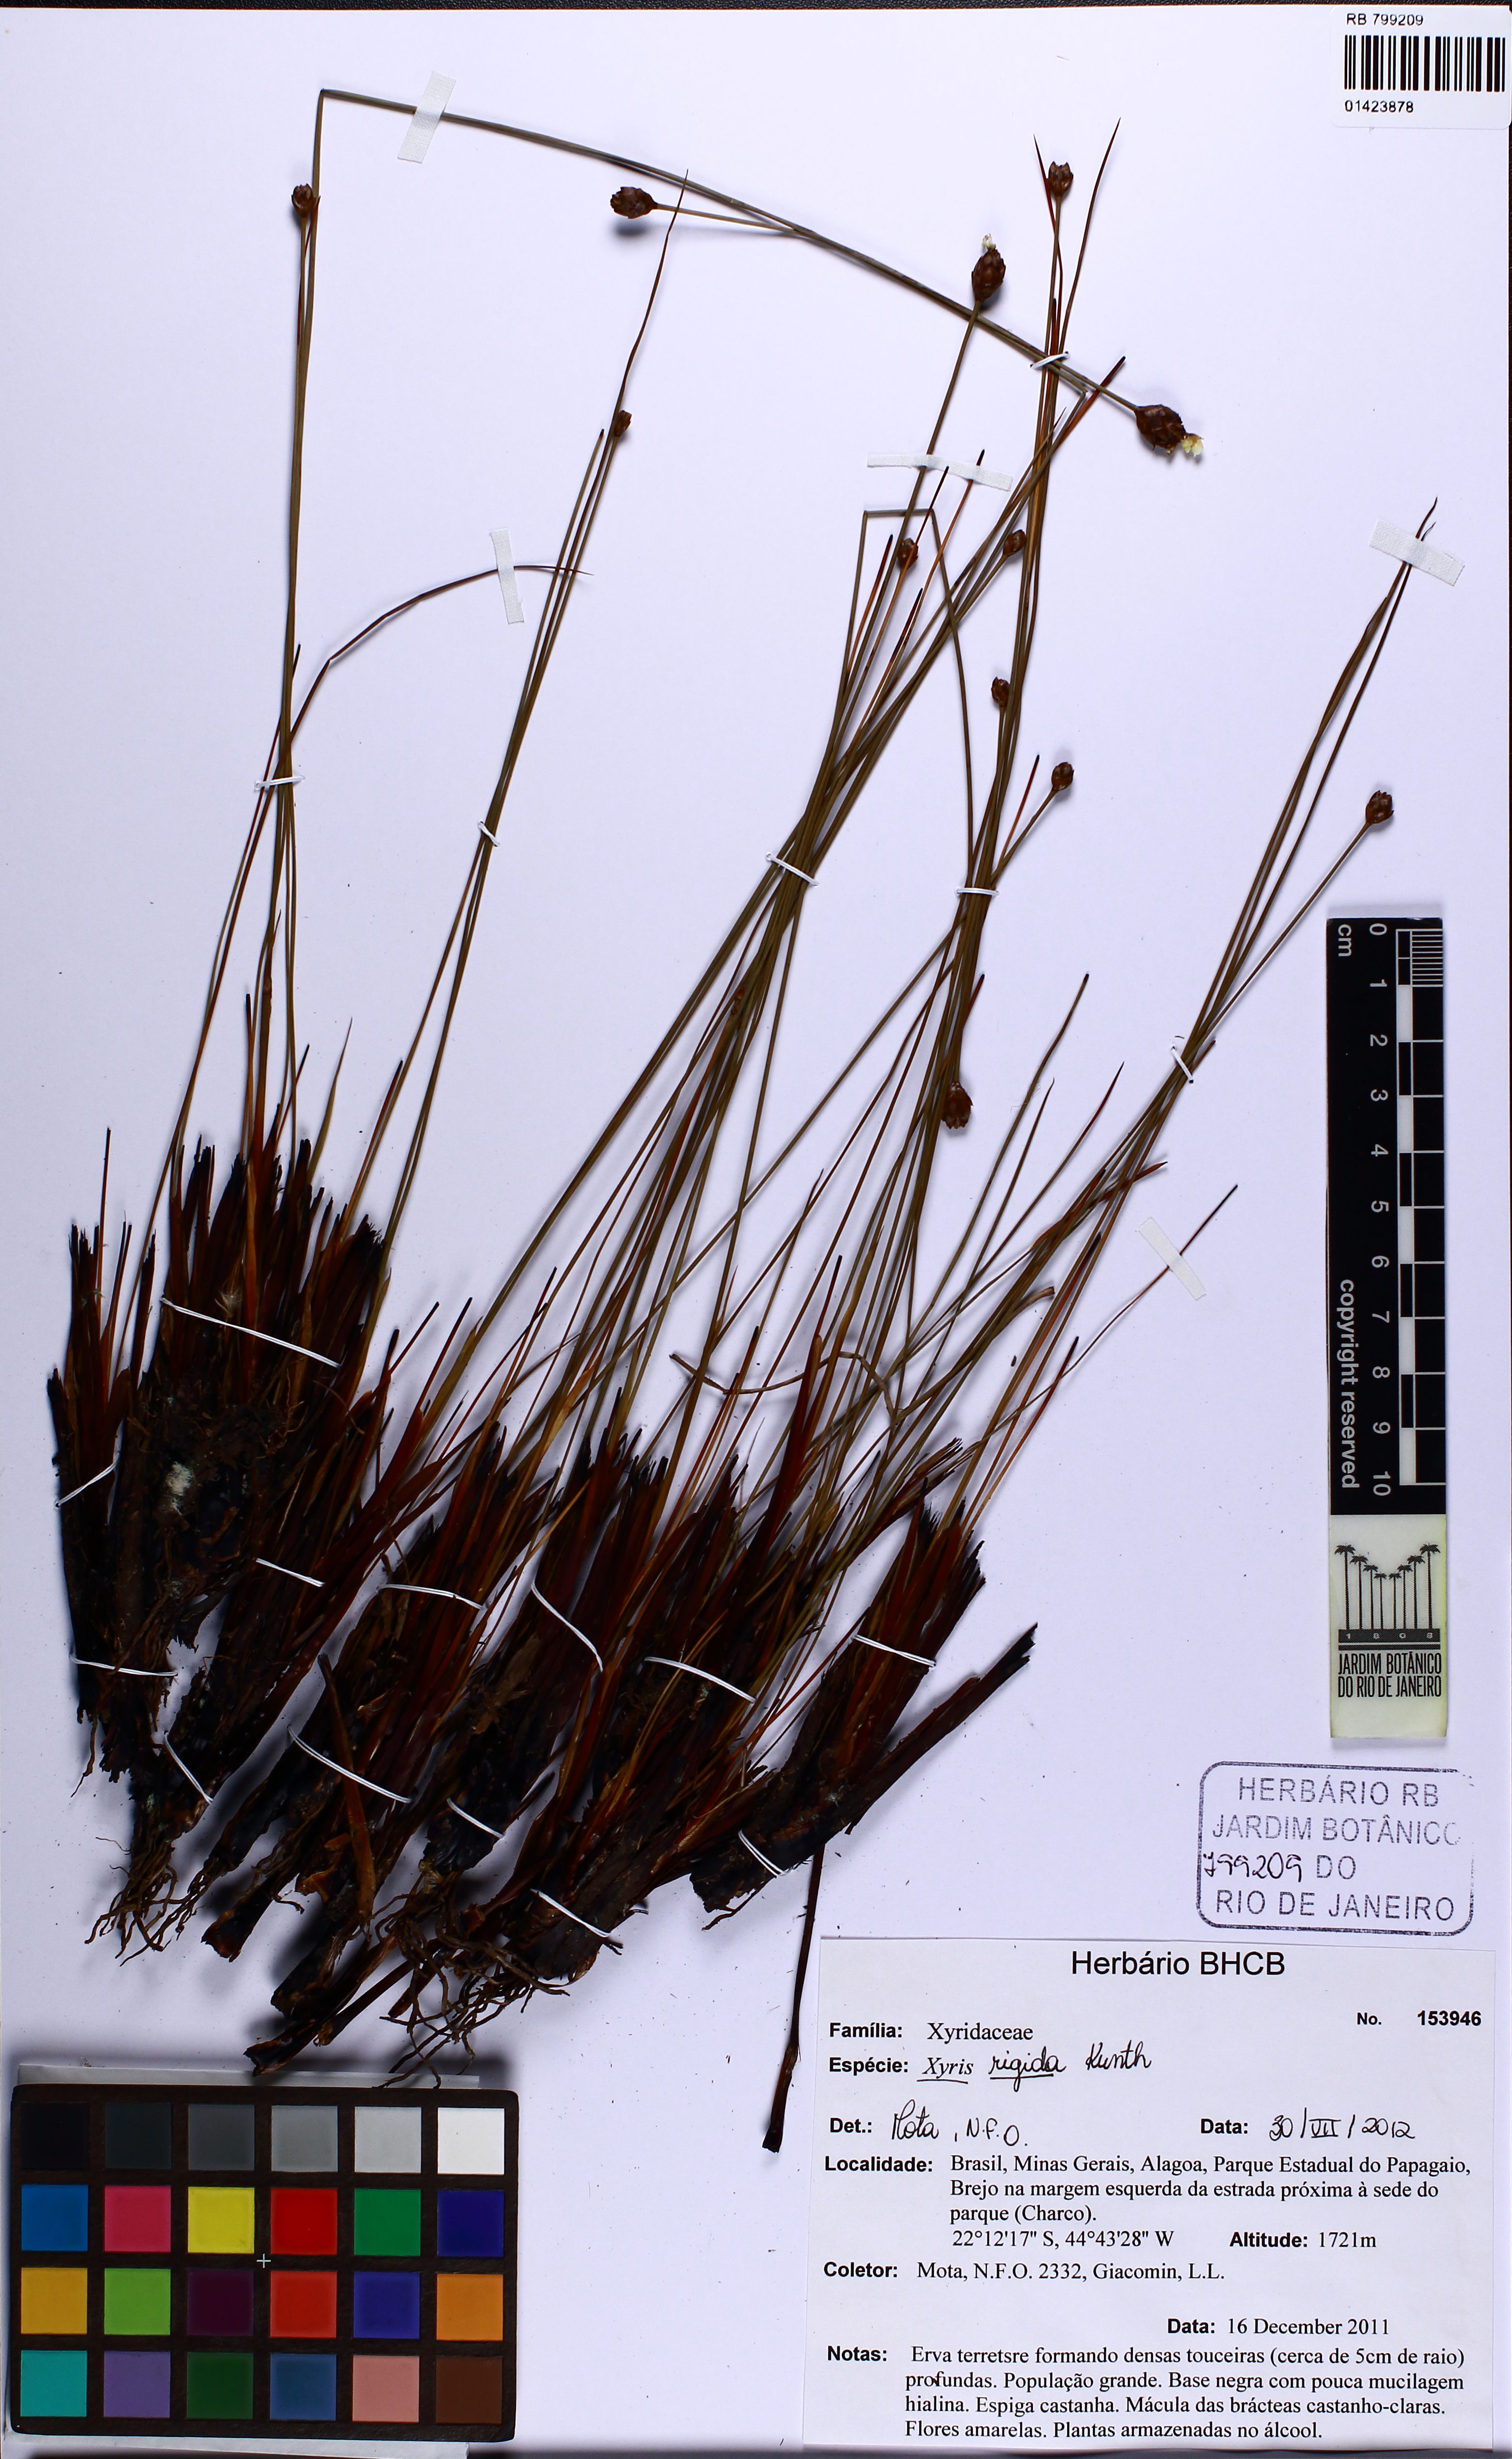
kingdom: Plantae
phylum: Tracheophyta
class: Liliopsida
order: Poales
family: Xyridaceae
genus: Xyris
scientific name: Xyris rigida
